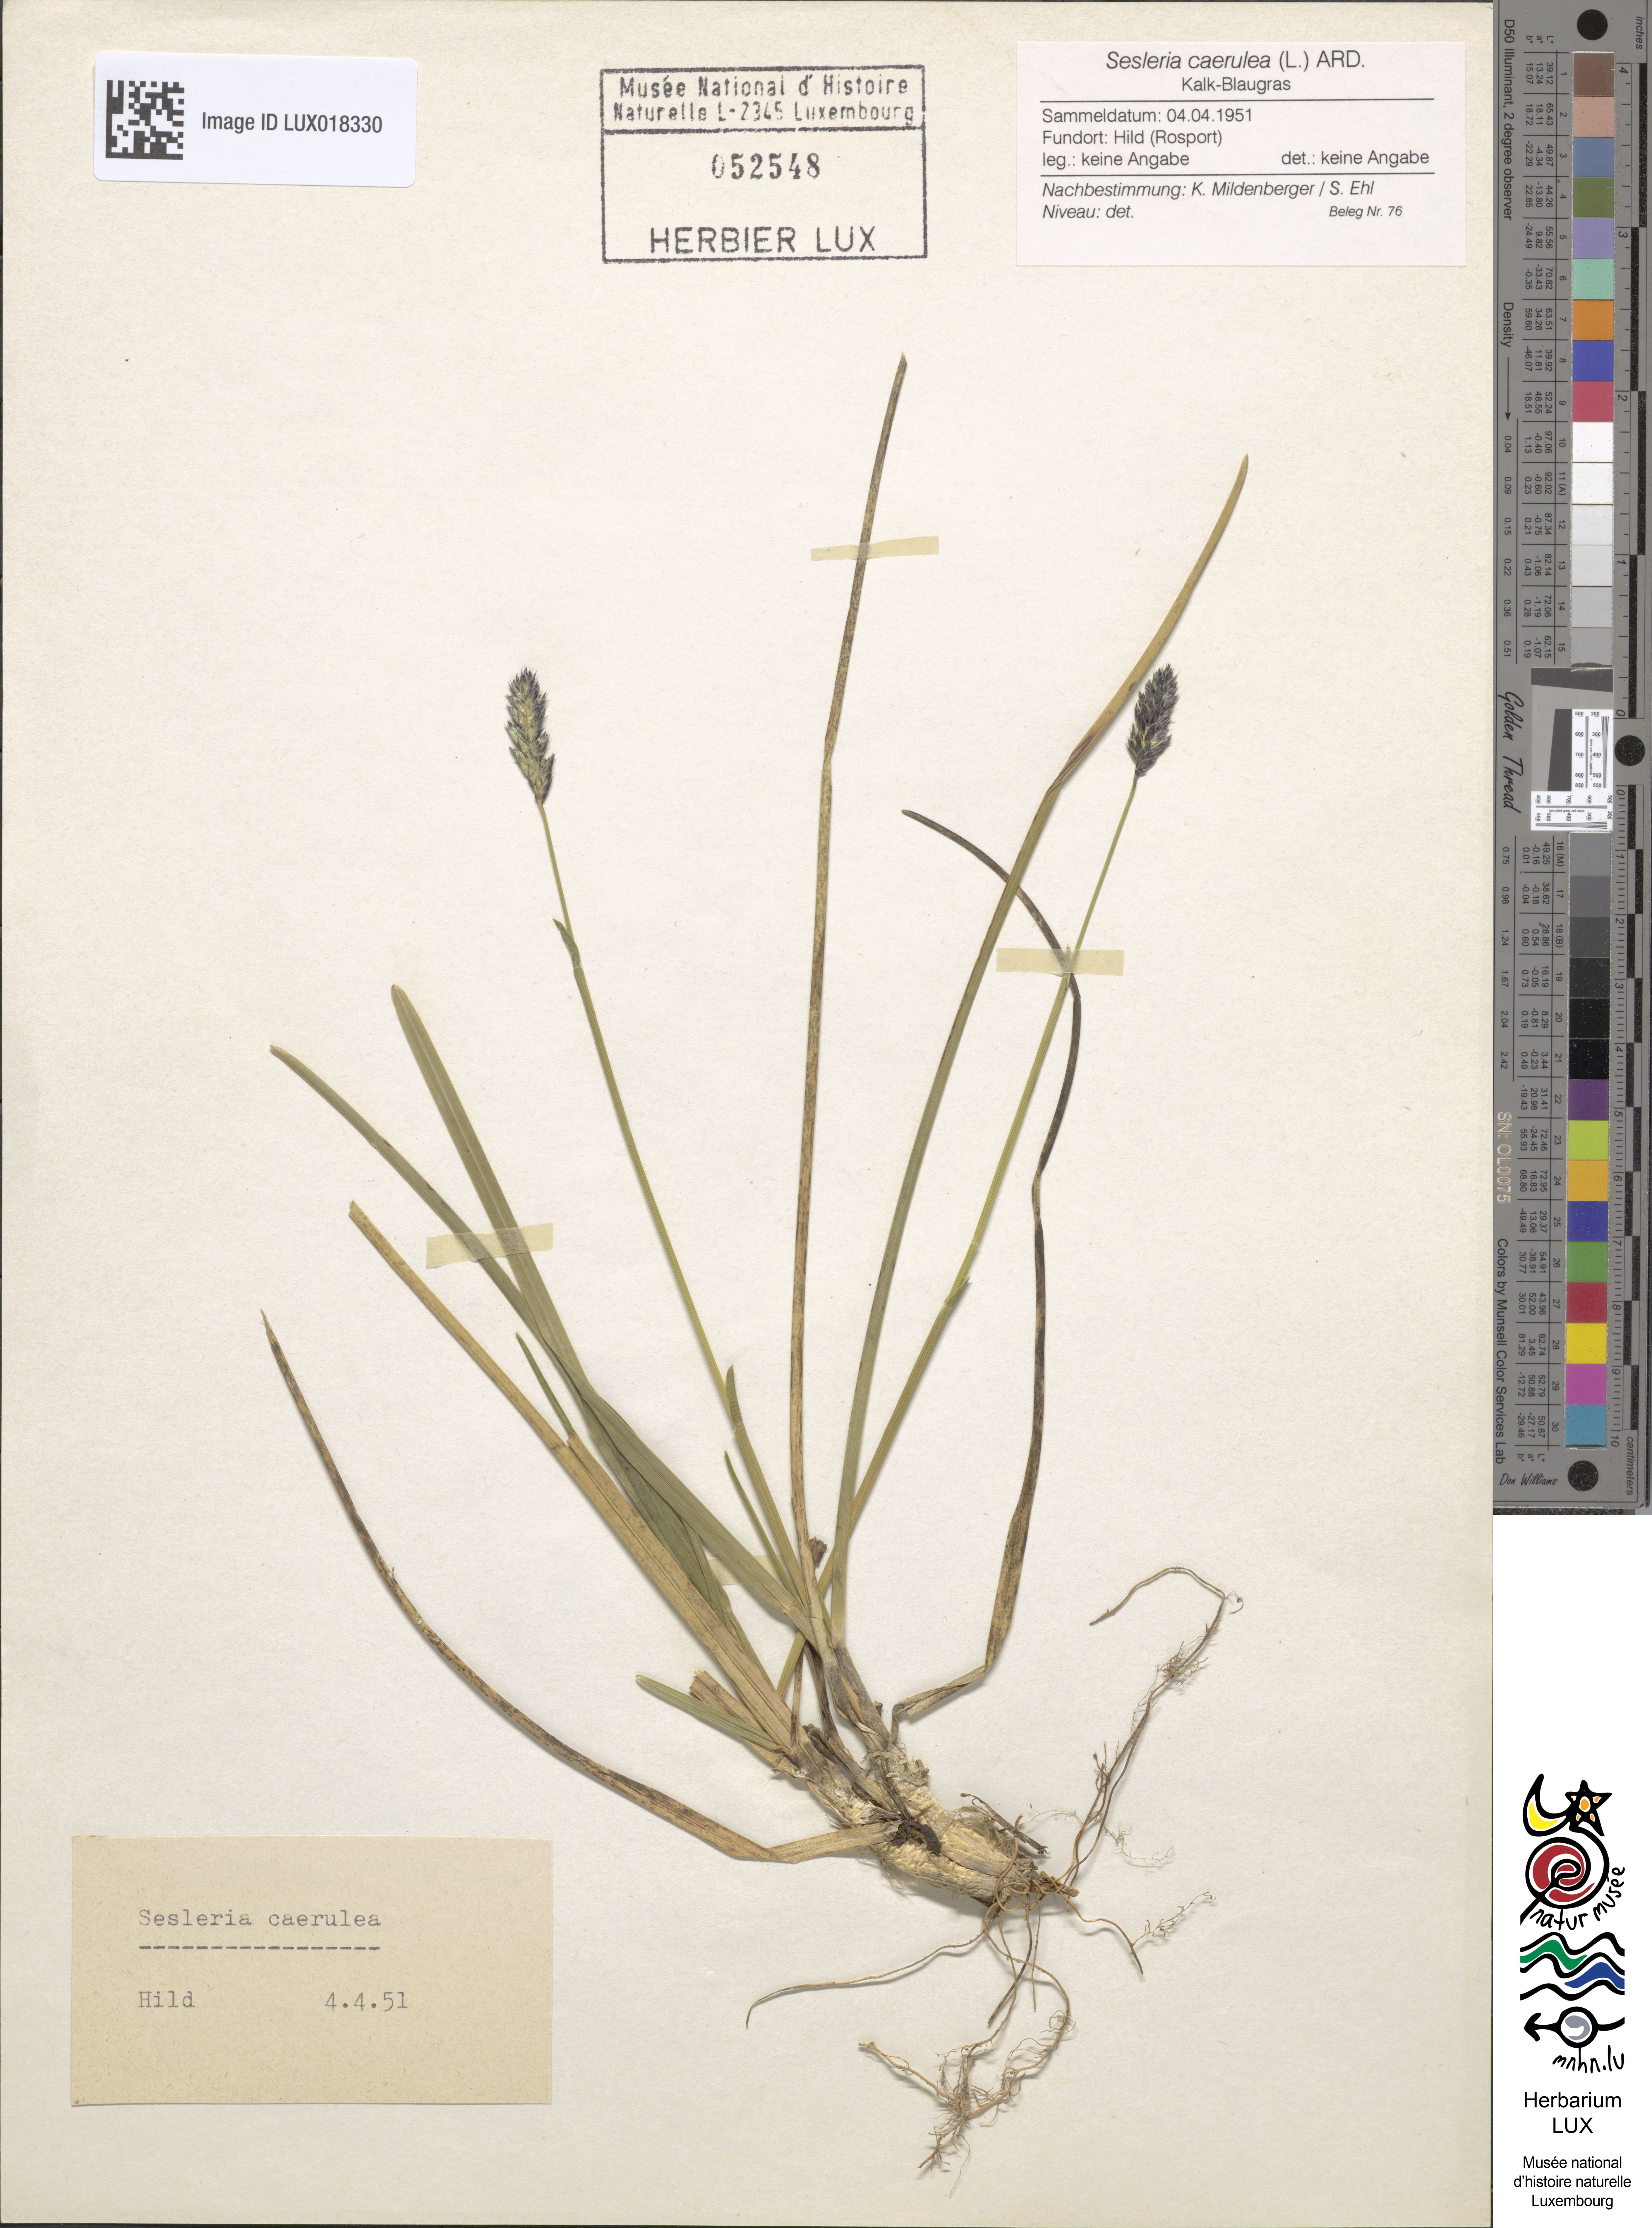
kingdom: Plantae
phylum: Tracheophyta
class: Liliopsida
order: Poales
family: Poaceae
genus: Sesleria
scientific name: Sesleria caerulea
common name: Blue moor-grass
